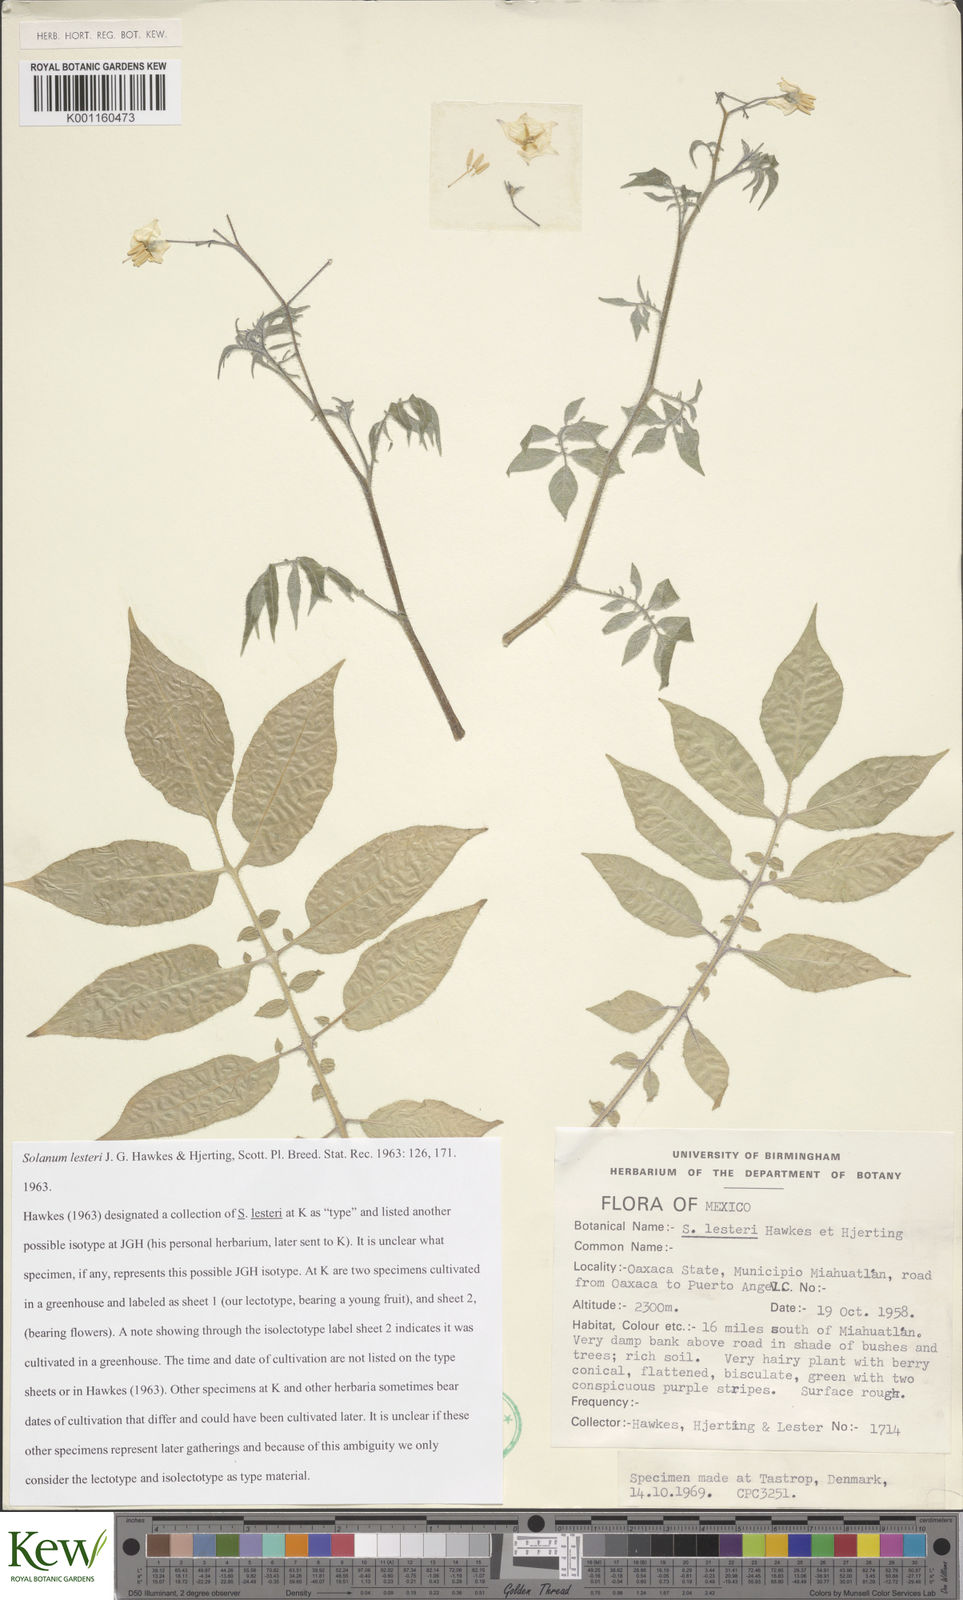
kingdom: Plantae
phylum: Tracheophyta
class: Magnoliopsida
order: Solanales
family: Solanaceae
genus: Solanum
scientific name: Solanum lesteri
